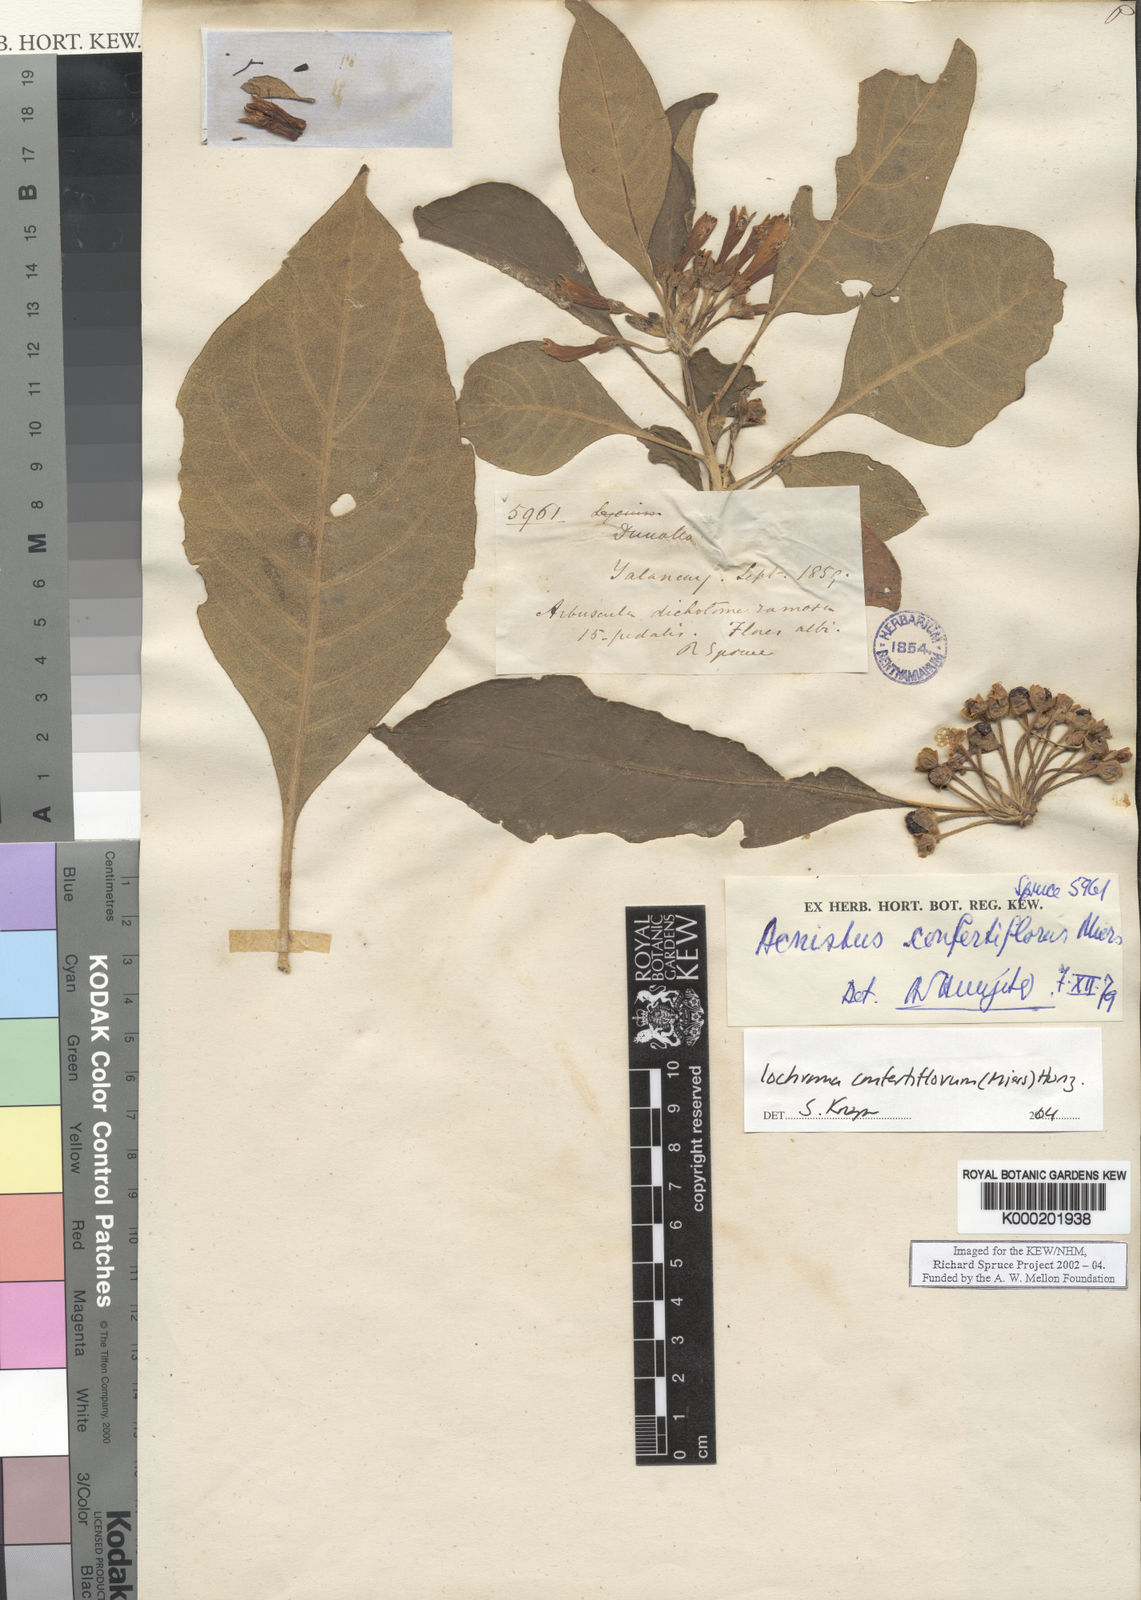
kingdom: Plantae
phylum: Tracheophyta
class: Magnoliopsida
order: Solanales
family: Solanaceae
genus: Iochroma
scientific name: Iochroma confertiflorum
